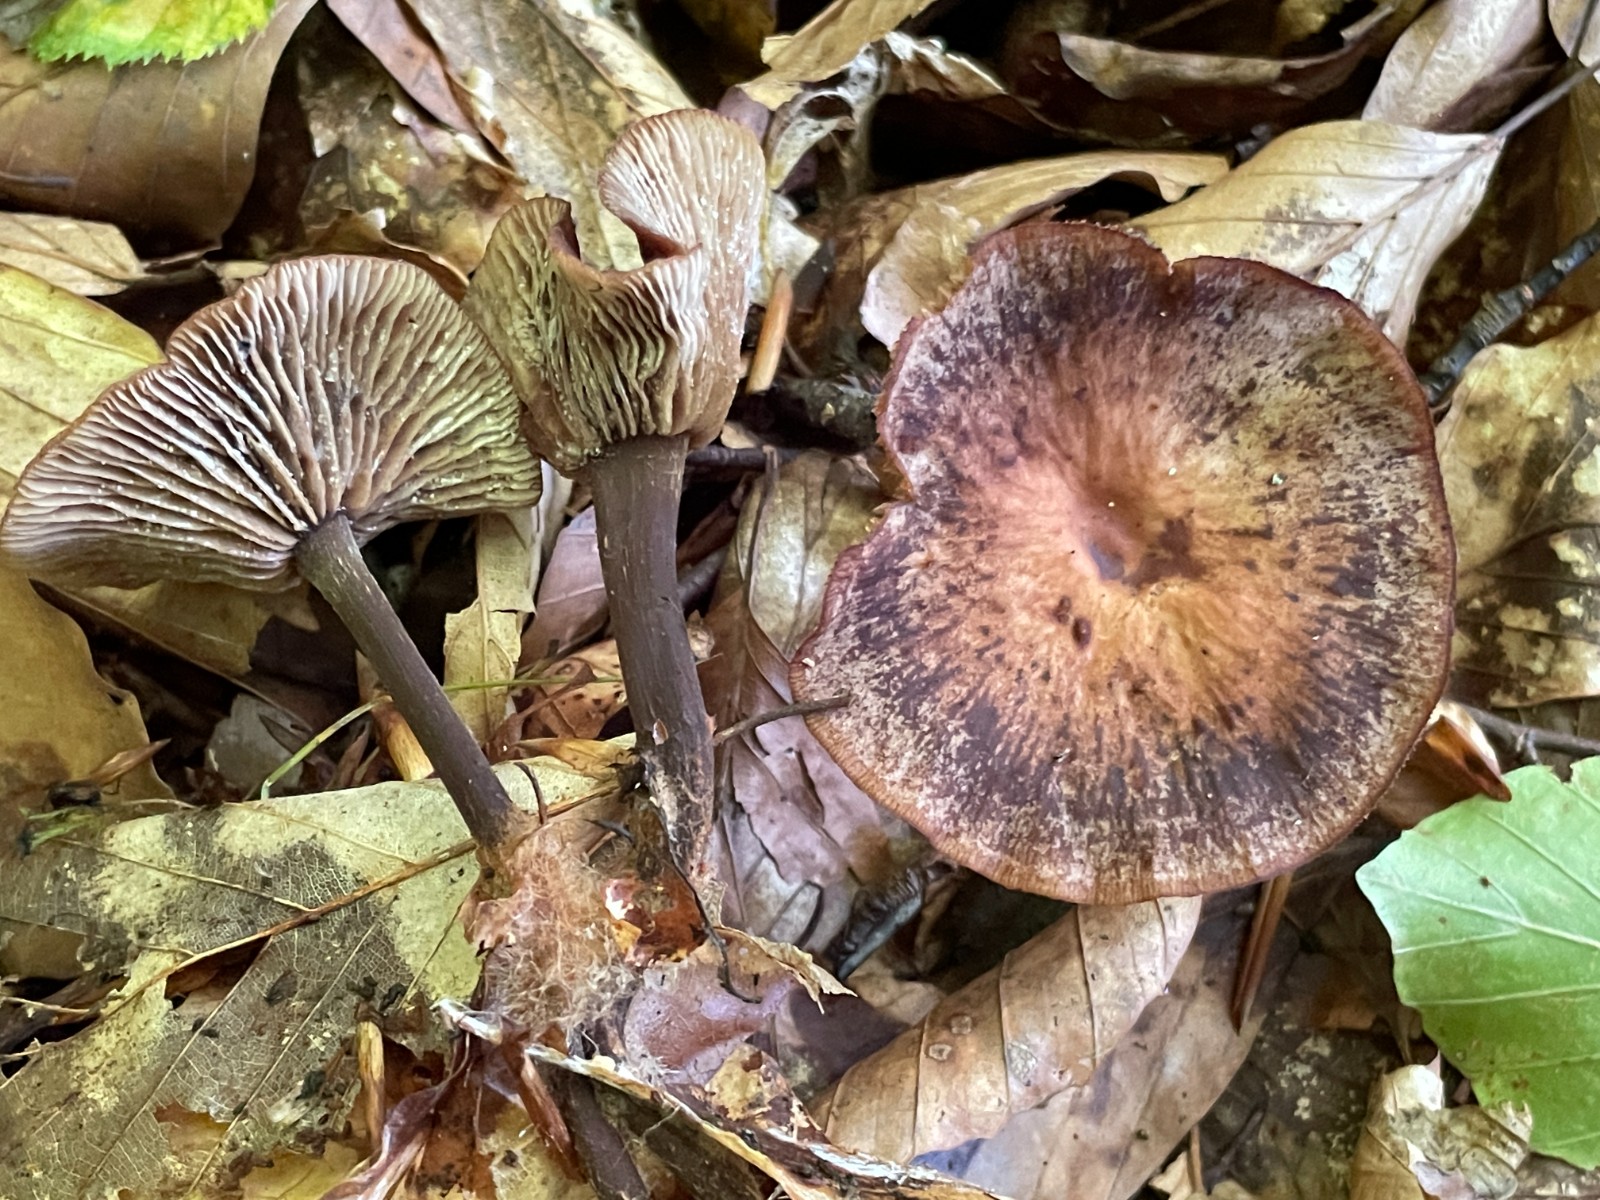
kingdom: Fungi
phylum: Basidiomycota
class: Agaricomycetes
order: Agaricales
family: Omphalotaceae
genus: Gymnopus
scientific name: Gymnopus fuscopurpureus
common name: purpurbrun fladhat
